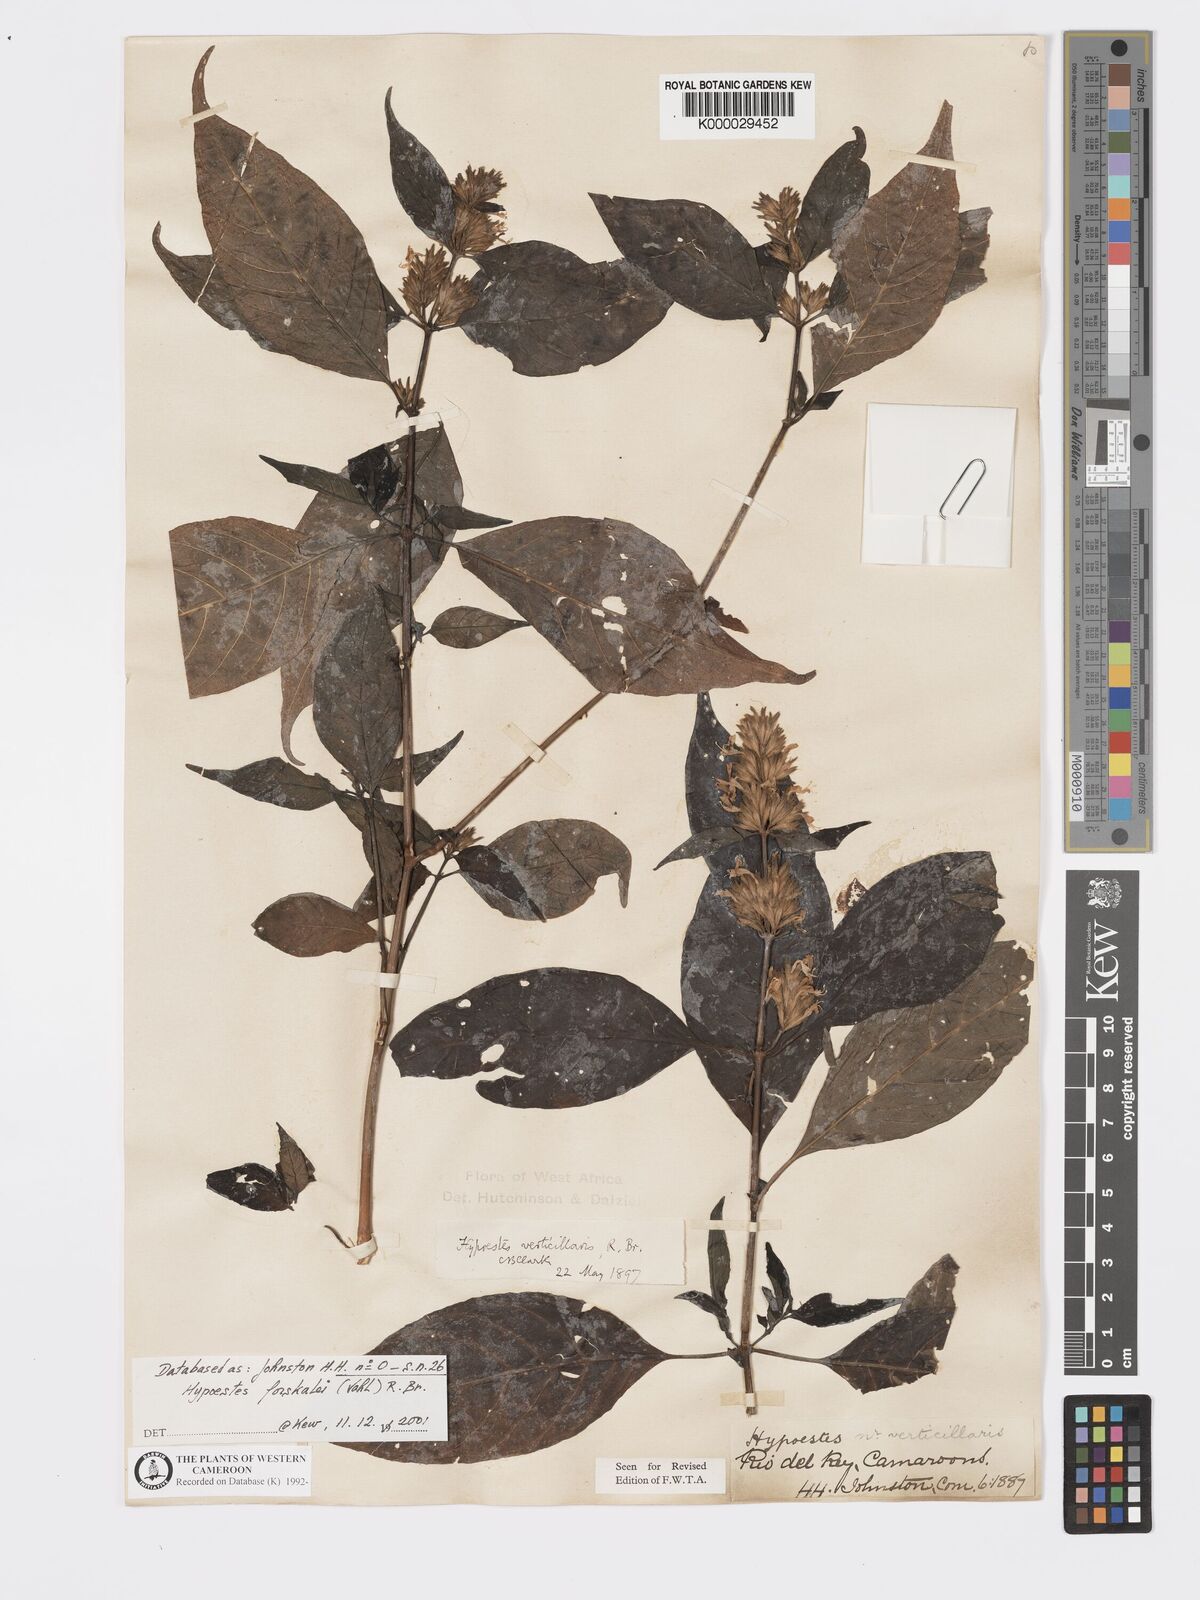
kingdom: Plantae
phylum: Tracheophyta
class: Magnoliopsida
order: Lamiales
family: Acanthaceae
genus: Hypoestes
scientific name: Hypoestes
